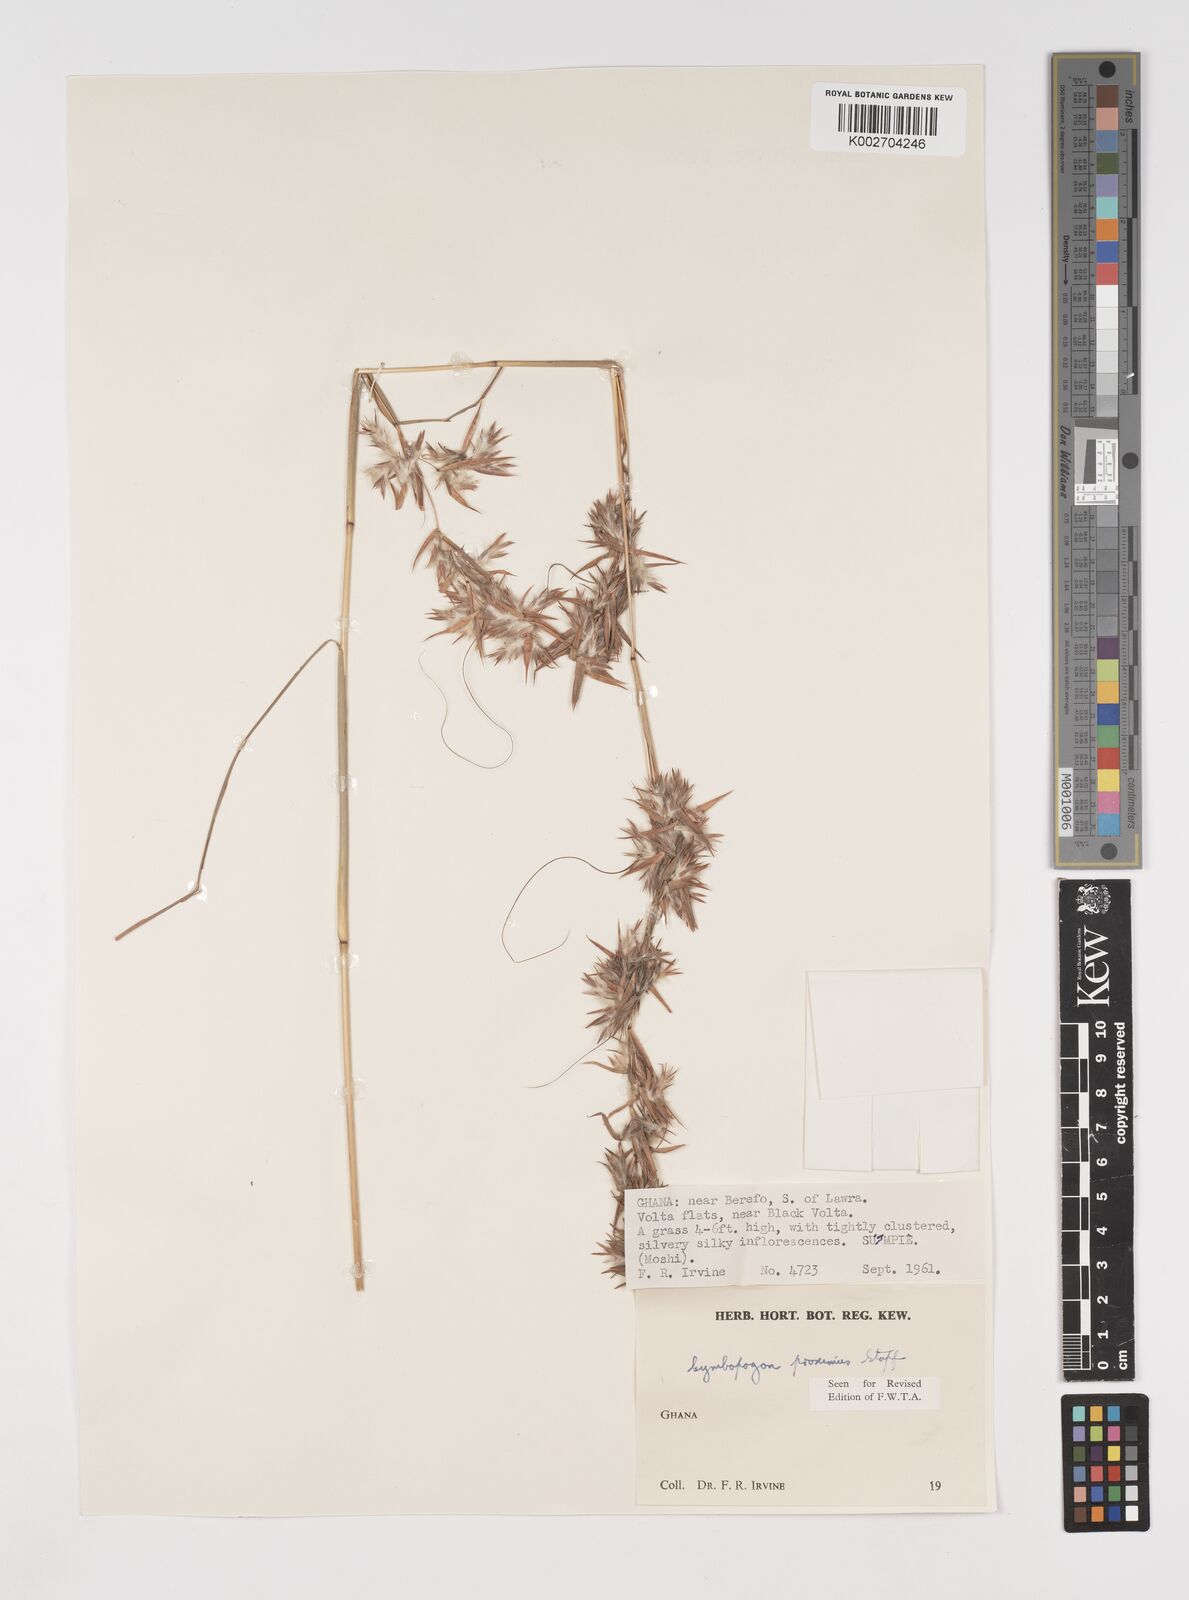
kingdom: Plantae
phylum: Tracheophyta
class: Liliopsida
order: Poales
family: Poaceae
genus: Cymbopogon
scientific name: Cymbopogon schoenanthus
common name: Geranium grass
